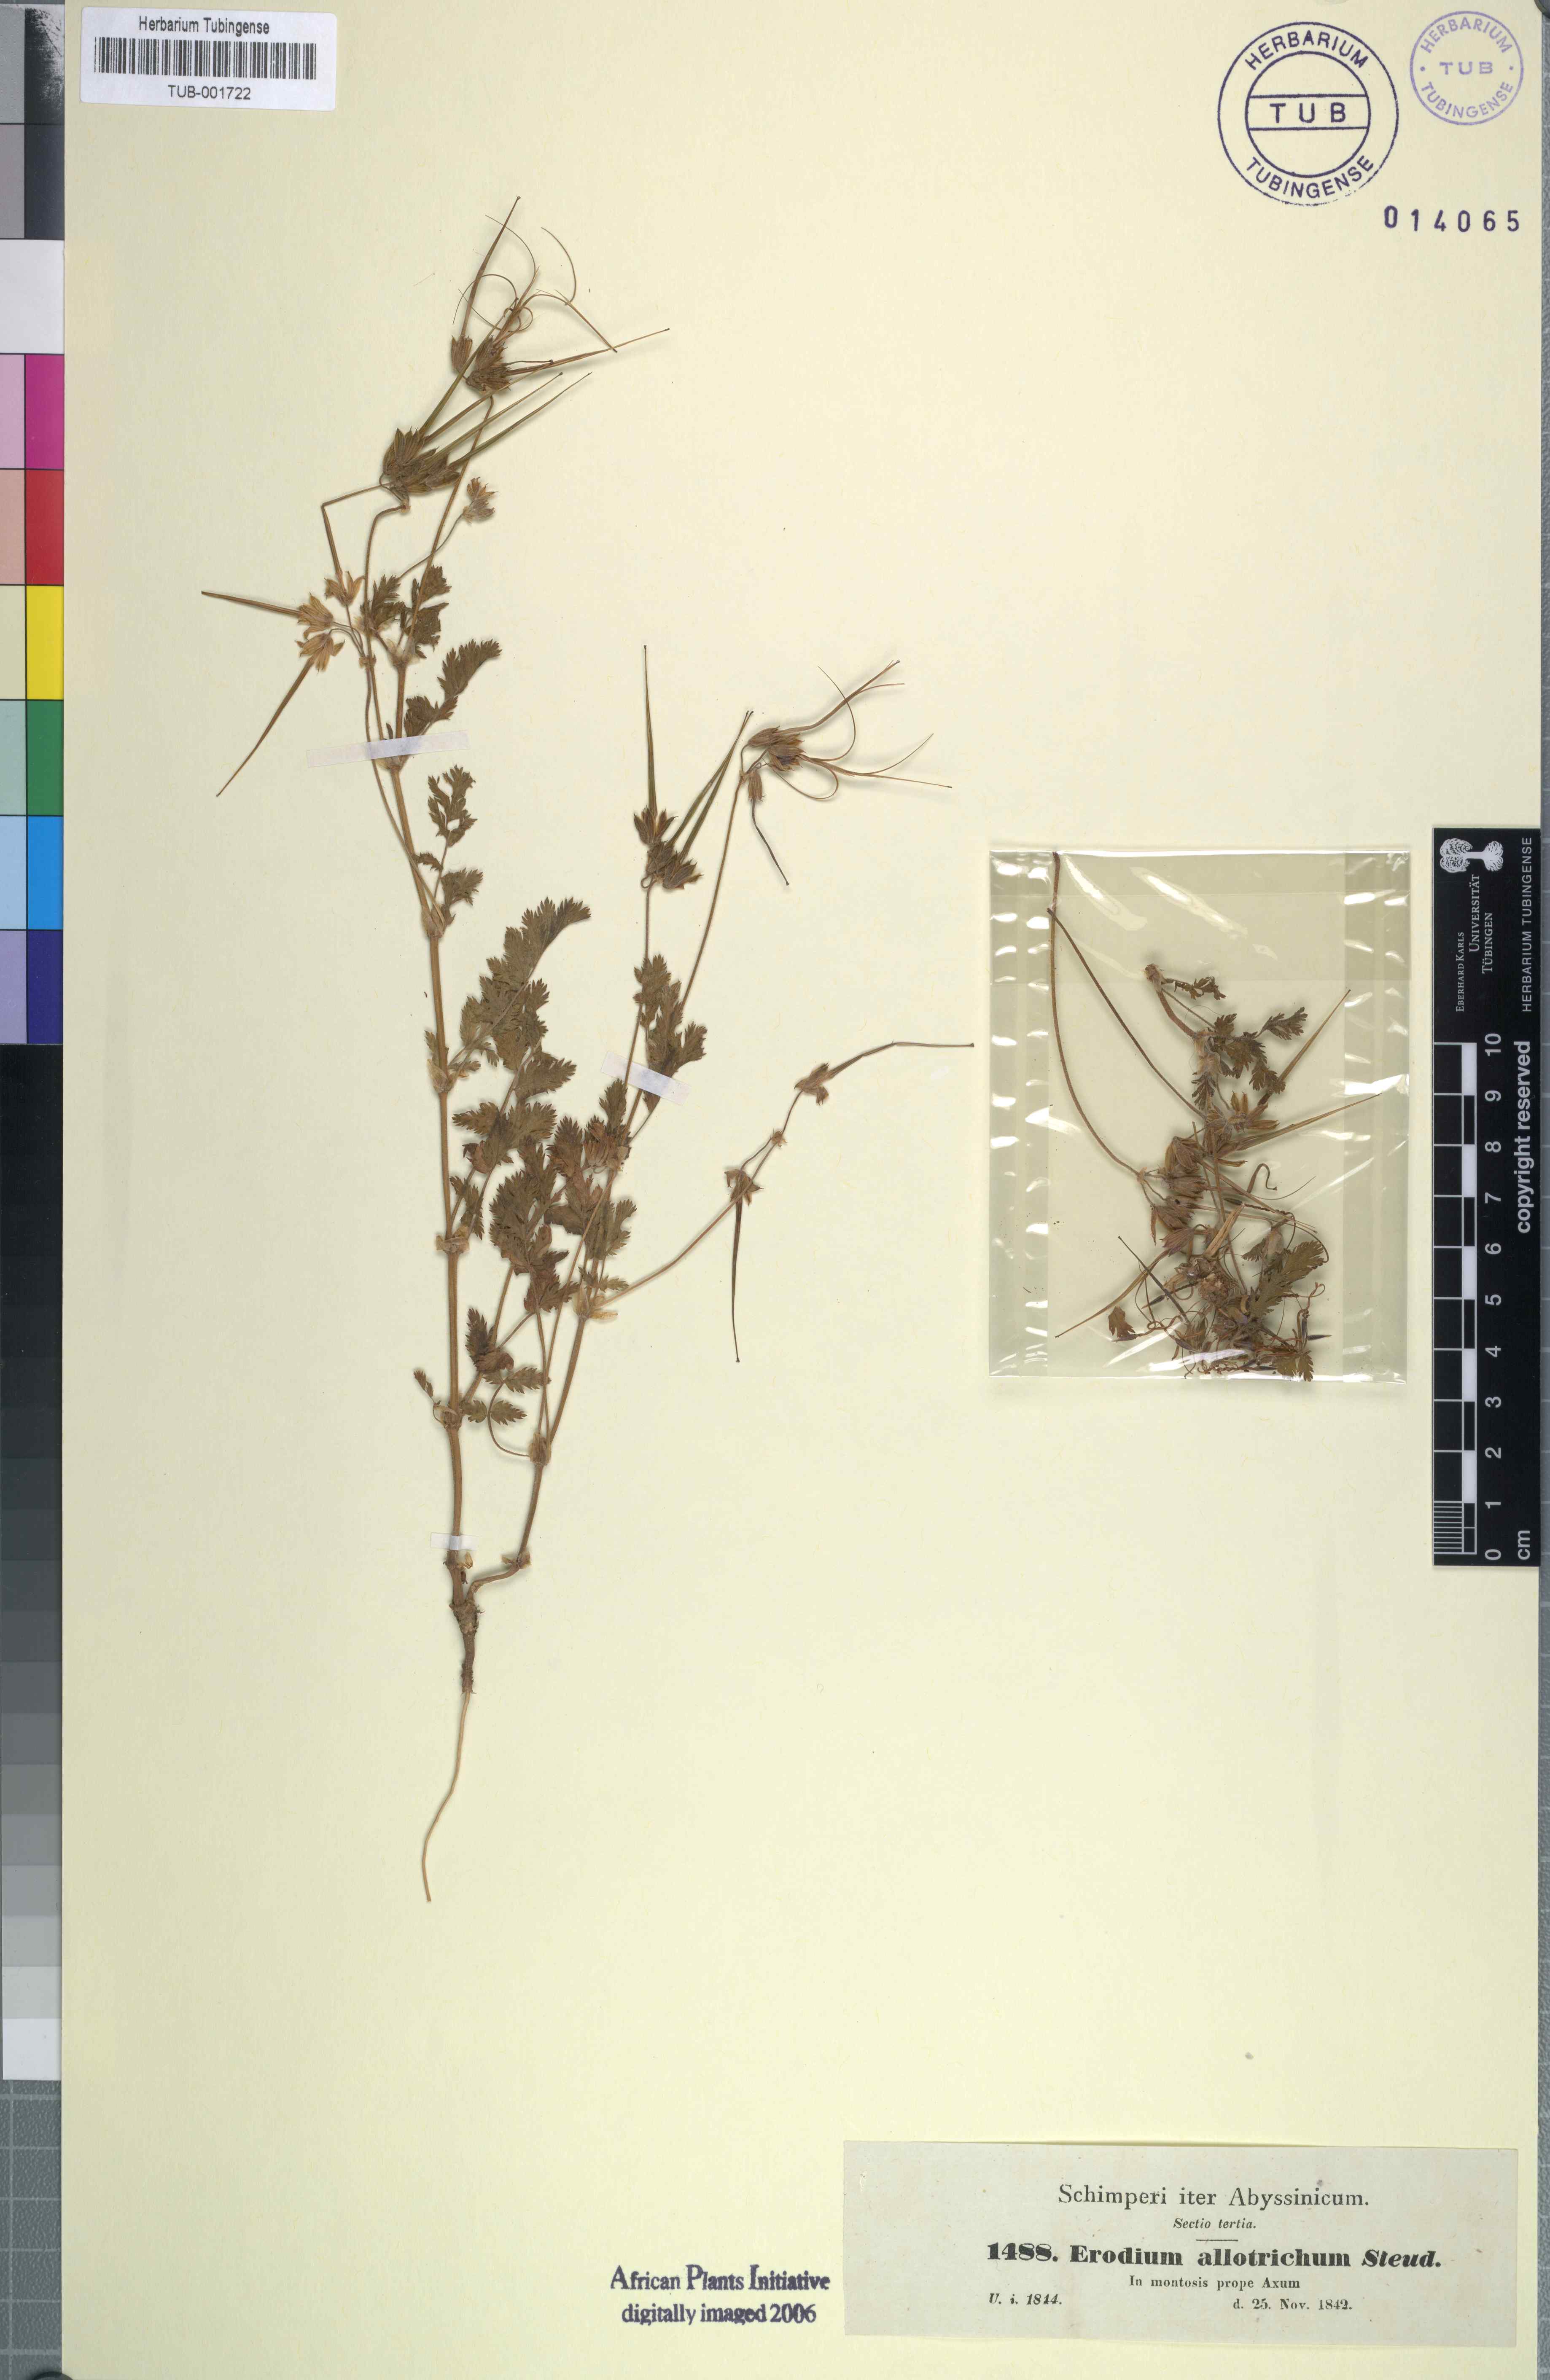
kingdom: Plantae
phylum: Tracheophyta
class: Magnoliopsida
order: Geraniales
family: Geraniaceae
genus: Erodium
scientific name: Erodium cicutarium
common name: Common stork's-bill
